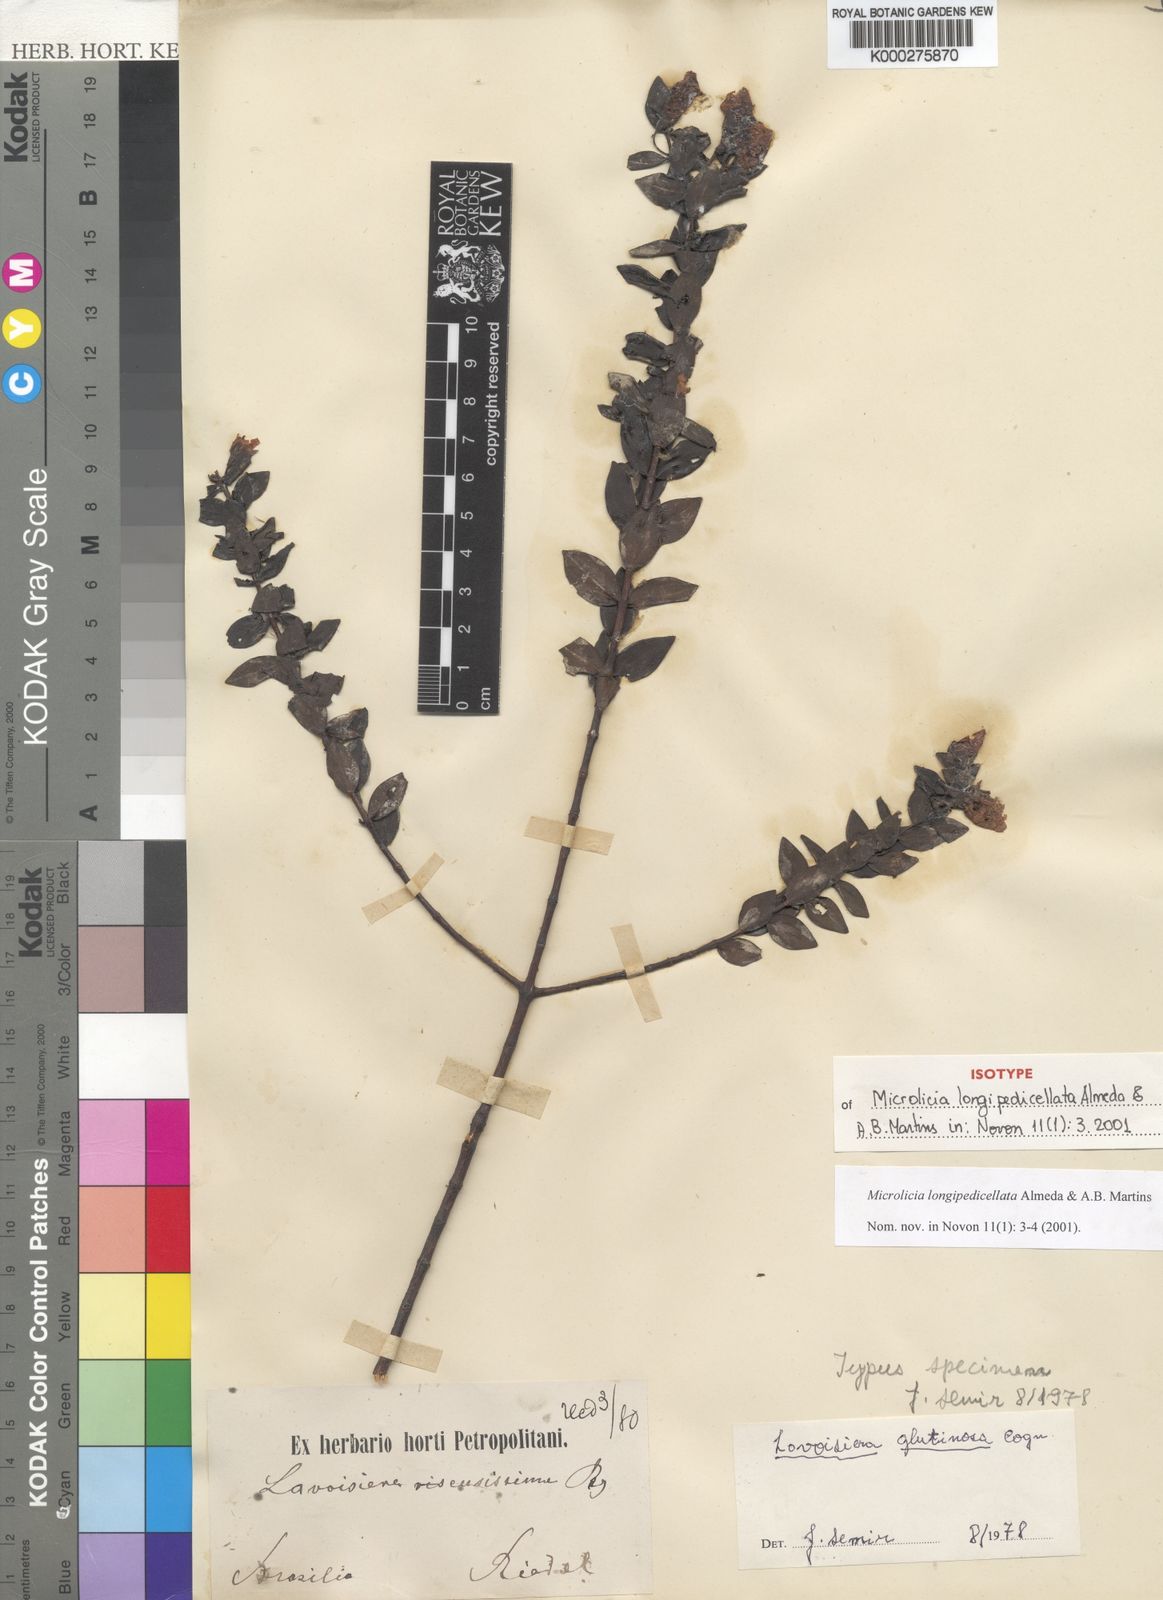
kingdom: Plantae
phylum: Tracheophyta
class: Magnoliopsida
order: Myrtales
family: Melastomataceae
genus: Microlicia
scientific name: Microlicia longipedicellata
